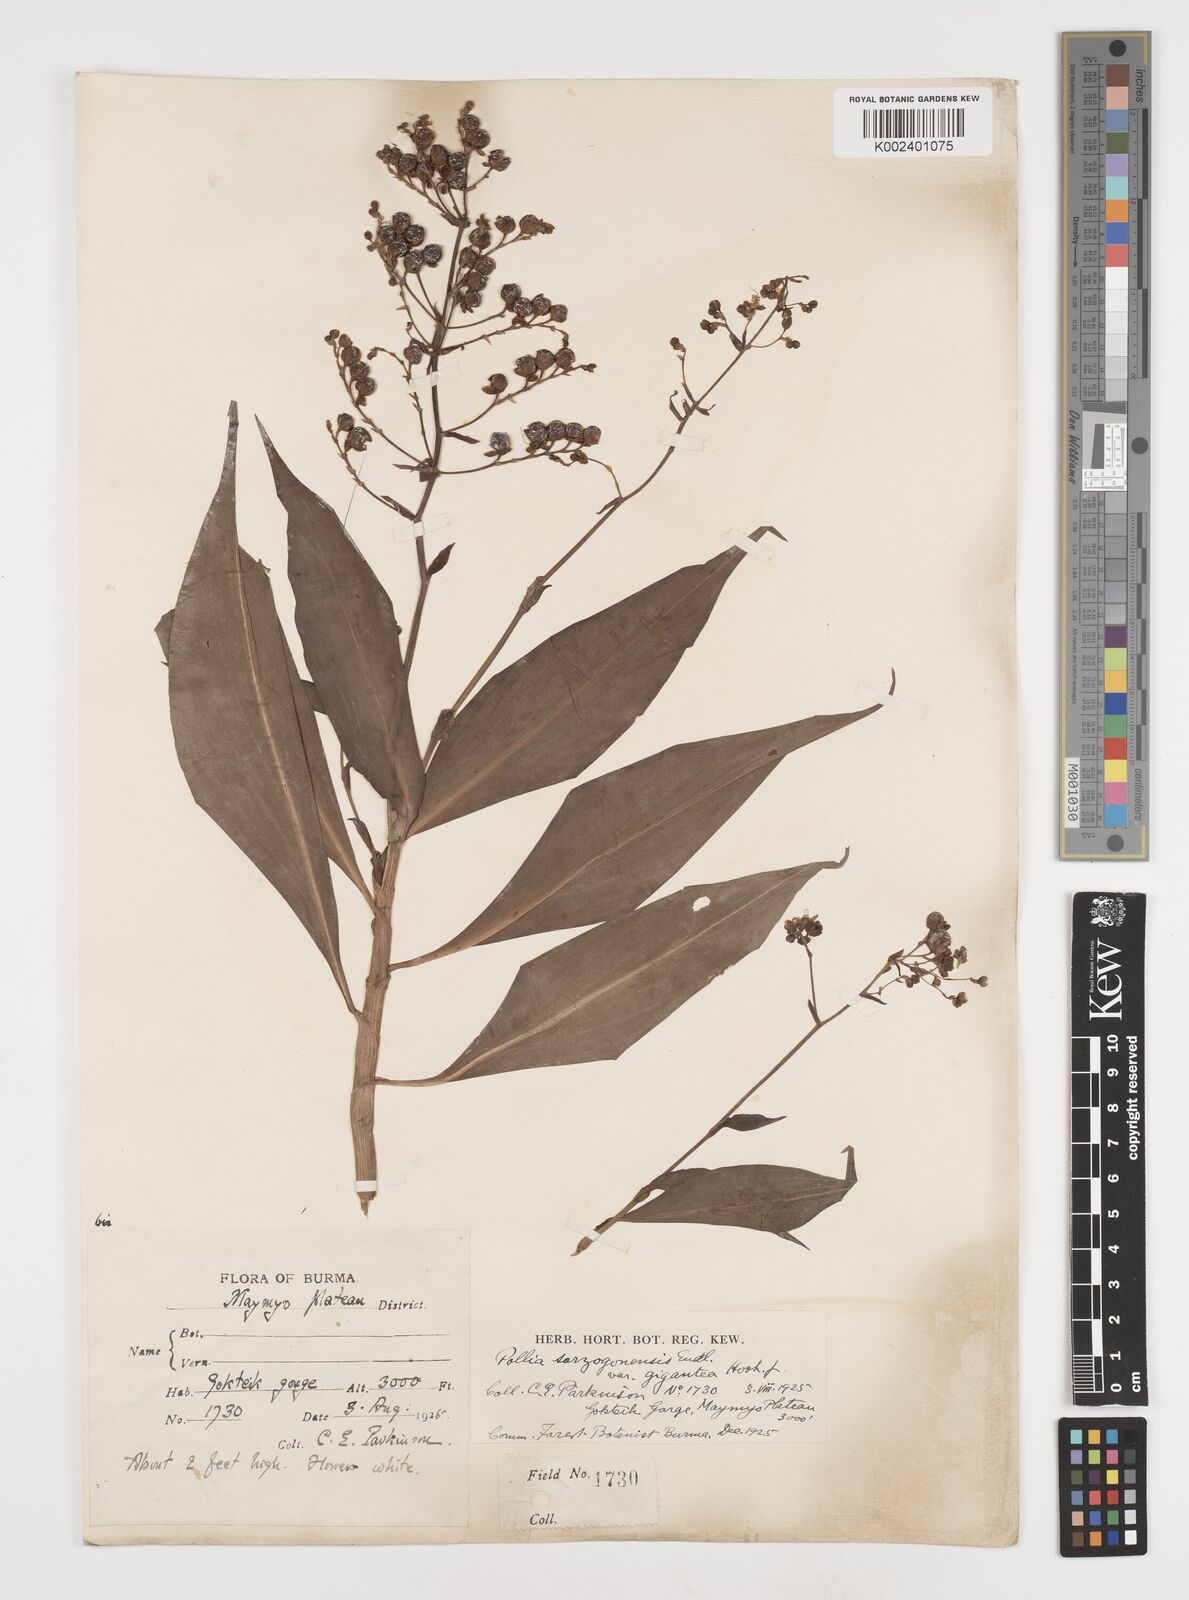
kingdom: Plantae
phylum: Tracheophyta
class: Liliopsida
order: Commelinales
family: Commelinaceae
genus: Pollia
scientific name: Pollia secundiflora
